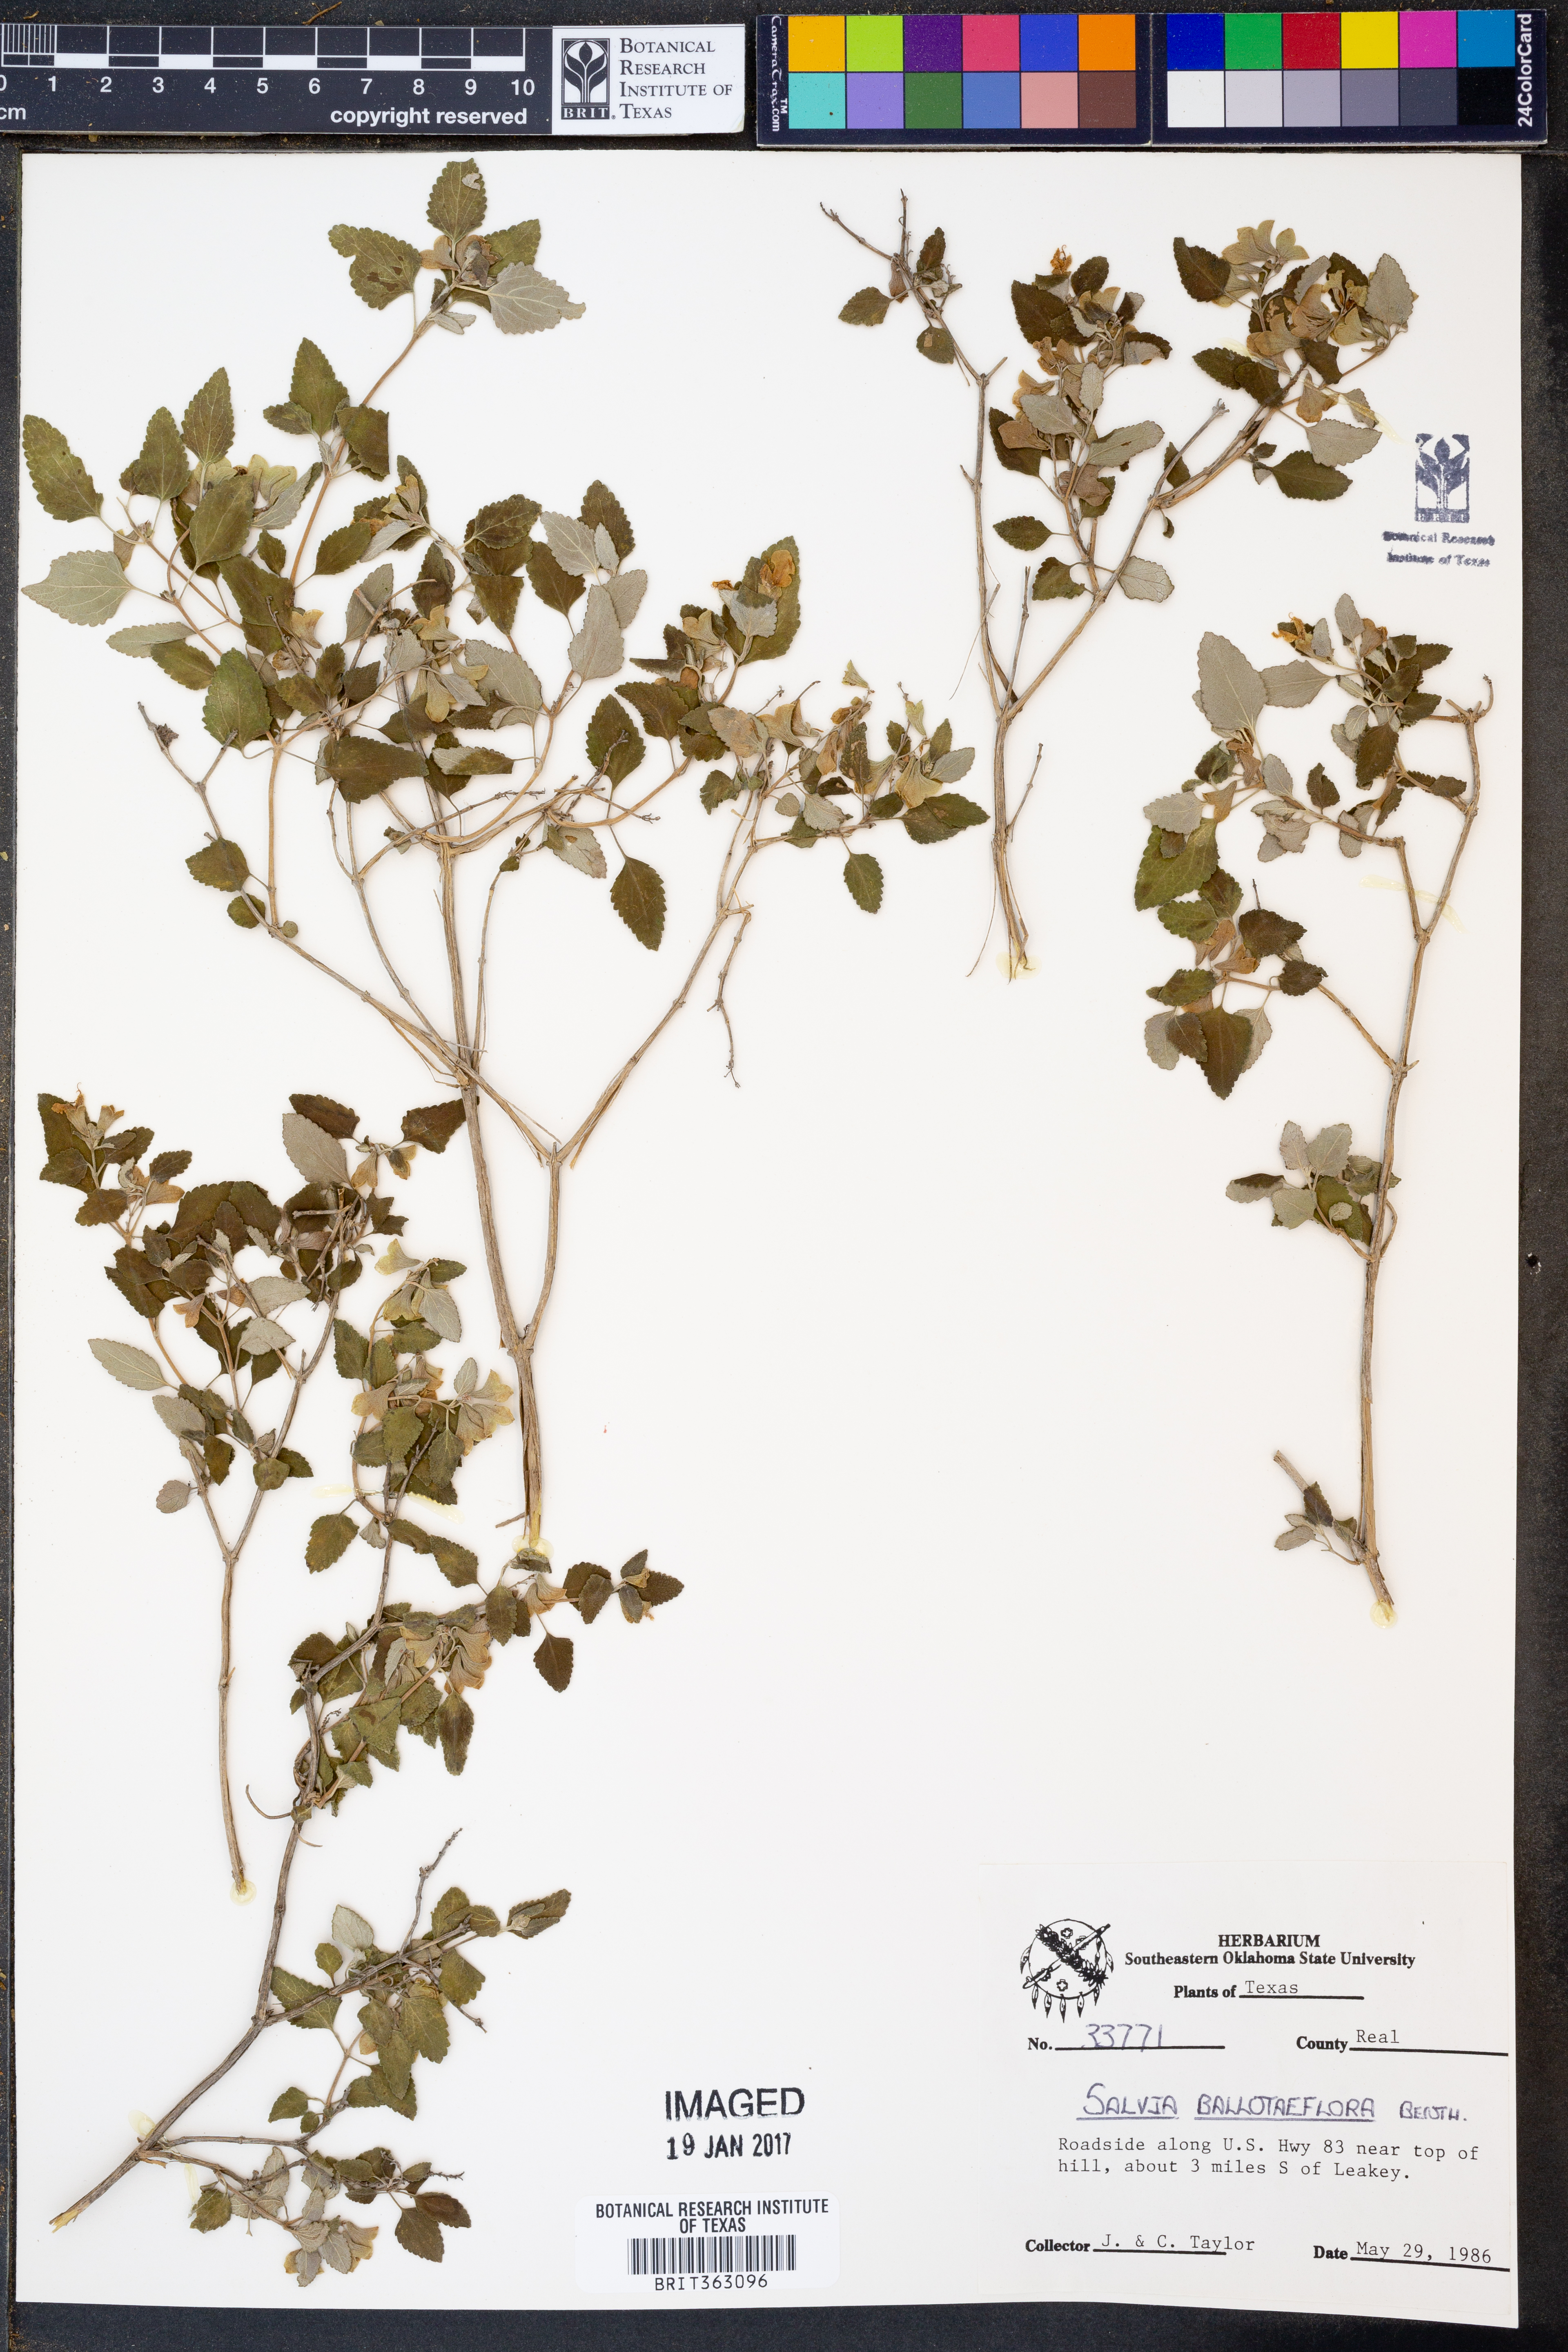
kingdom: Plantae
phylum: Tracheophyta
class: Magnoliopsida
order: Lamiales
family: Lamiaceae
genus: Salvia
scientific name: Salvia ballotiflora
